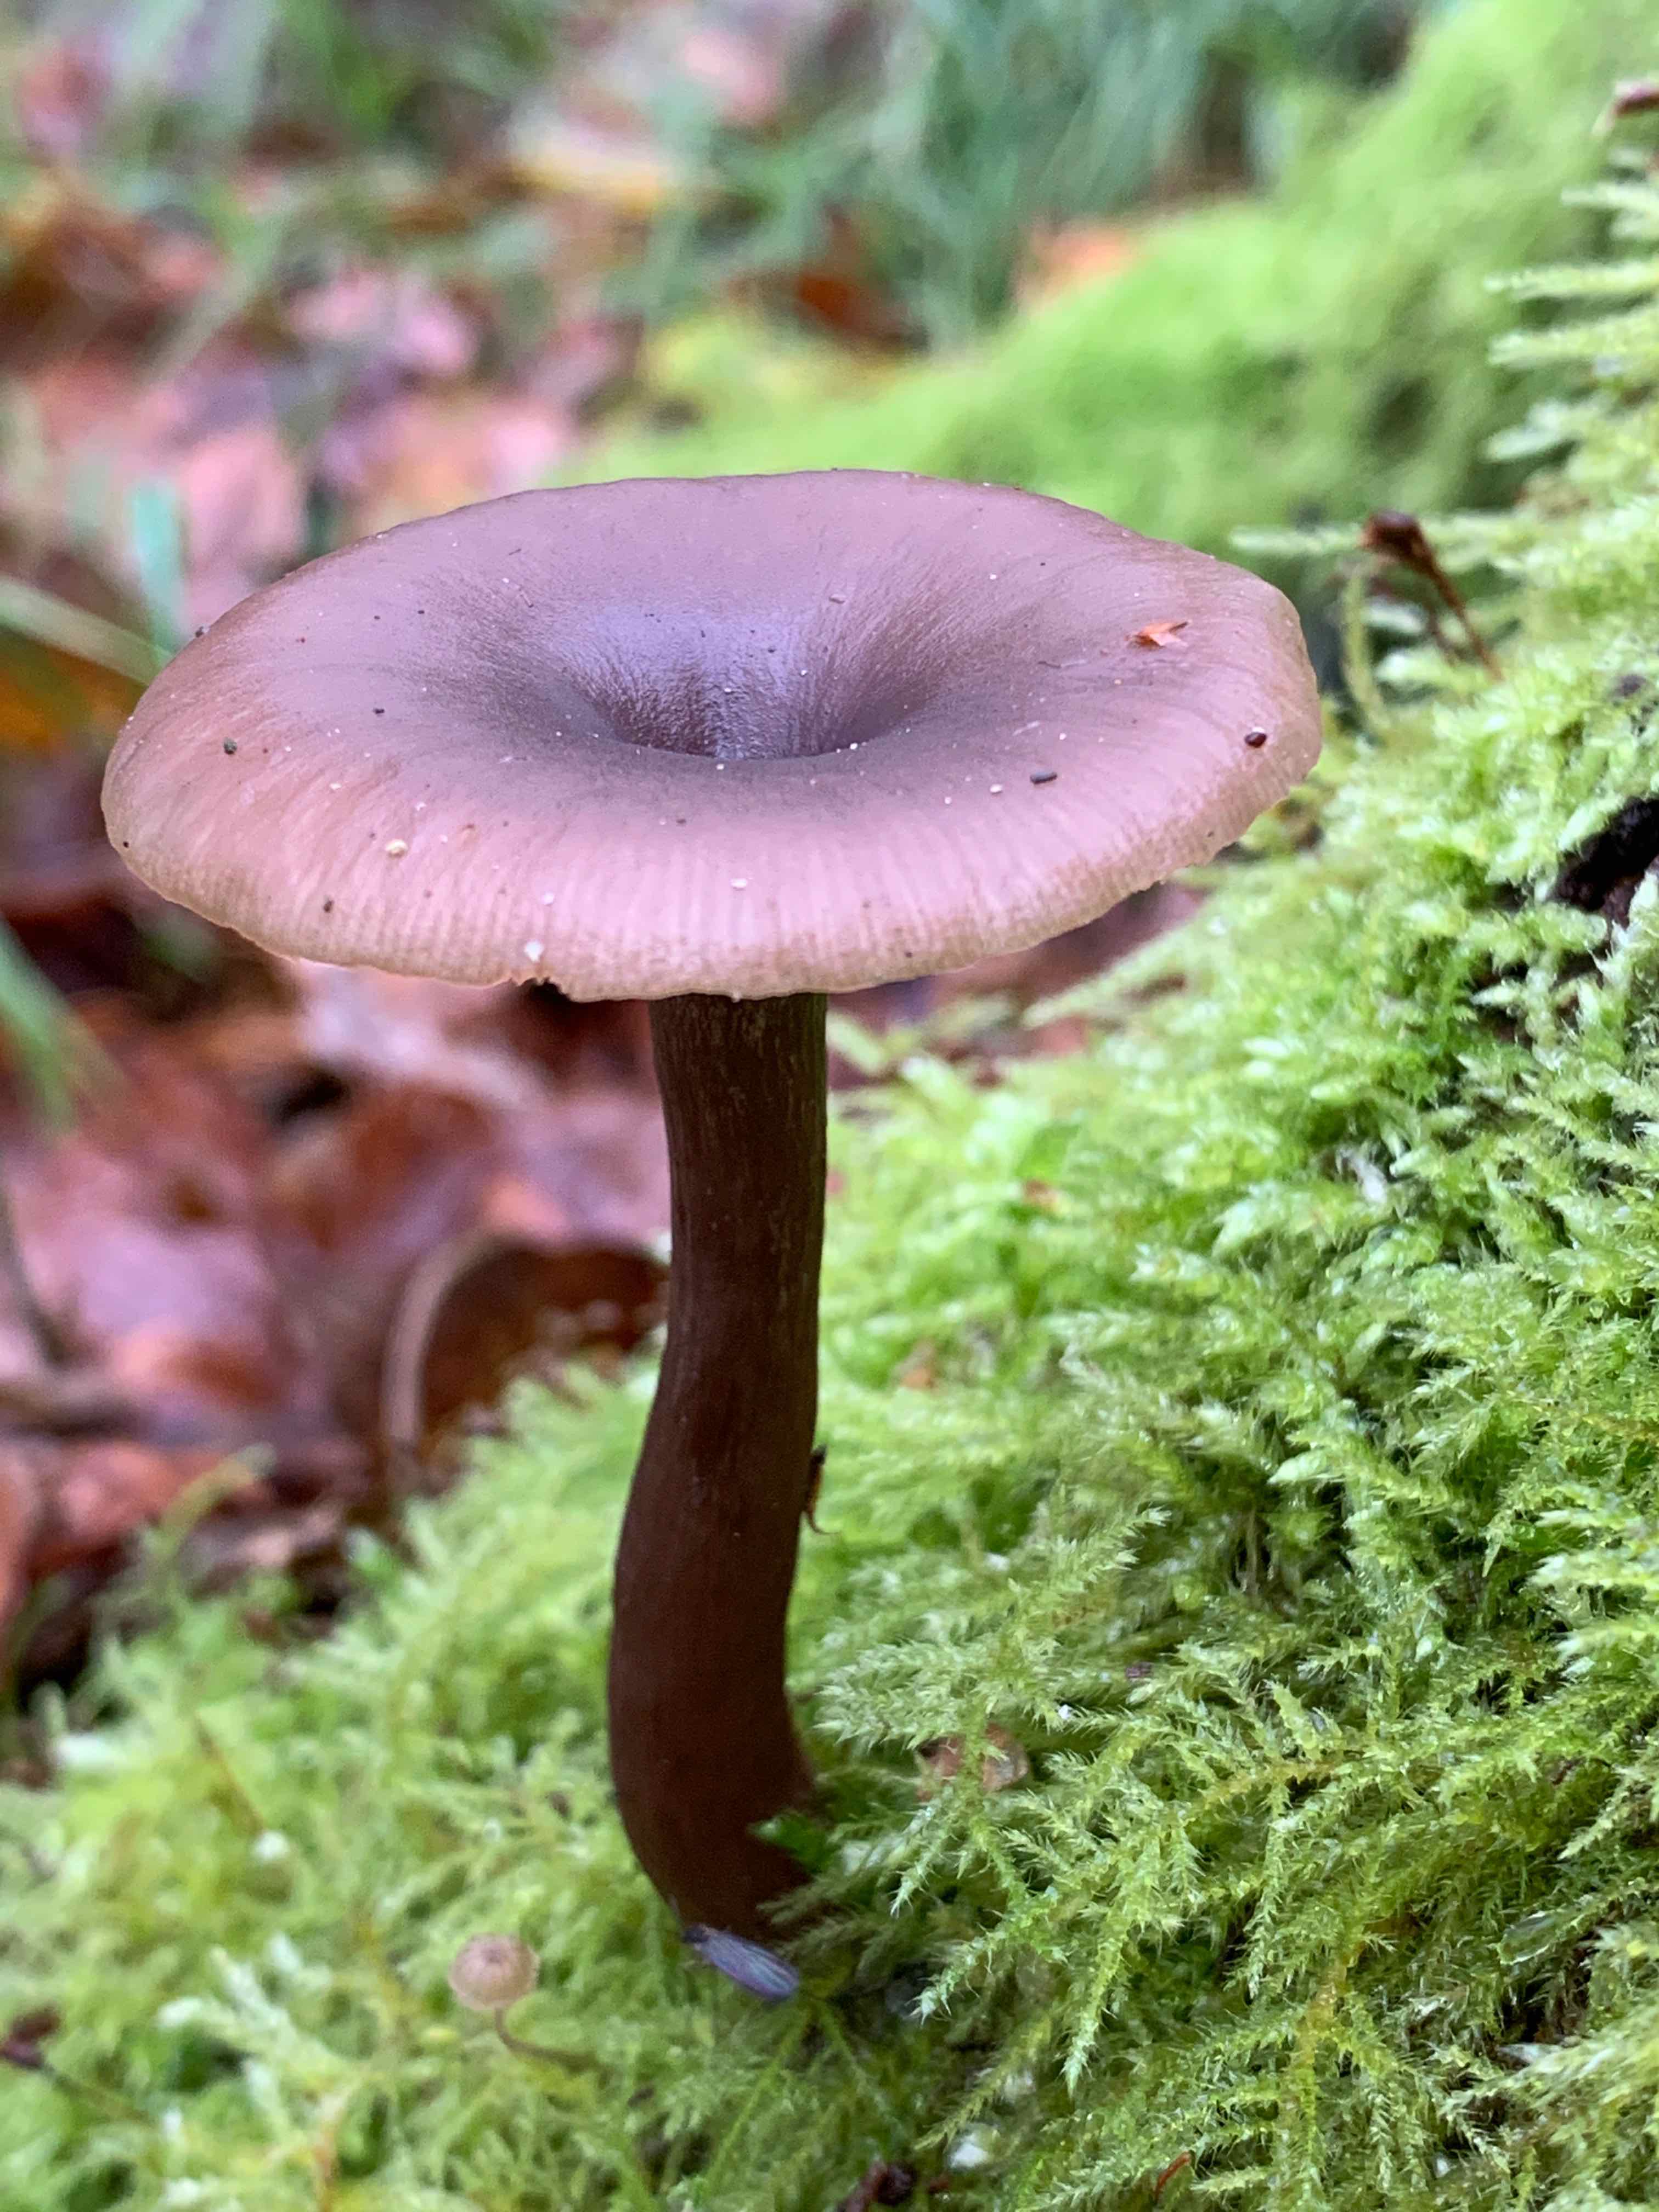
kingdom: Fungi
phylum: Basidiomycota
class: Agaricomycetes
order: Agaricales
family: Pseudoclitocybaceae
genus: Pseudoclitocybe
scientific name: Pseudoclitocybe cyathiformis
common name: almindelig bægertragthat
